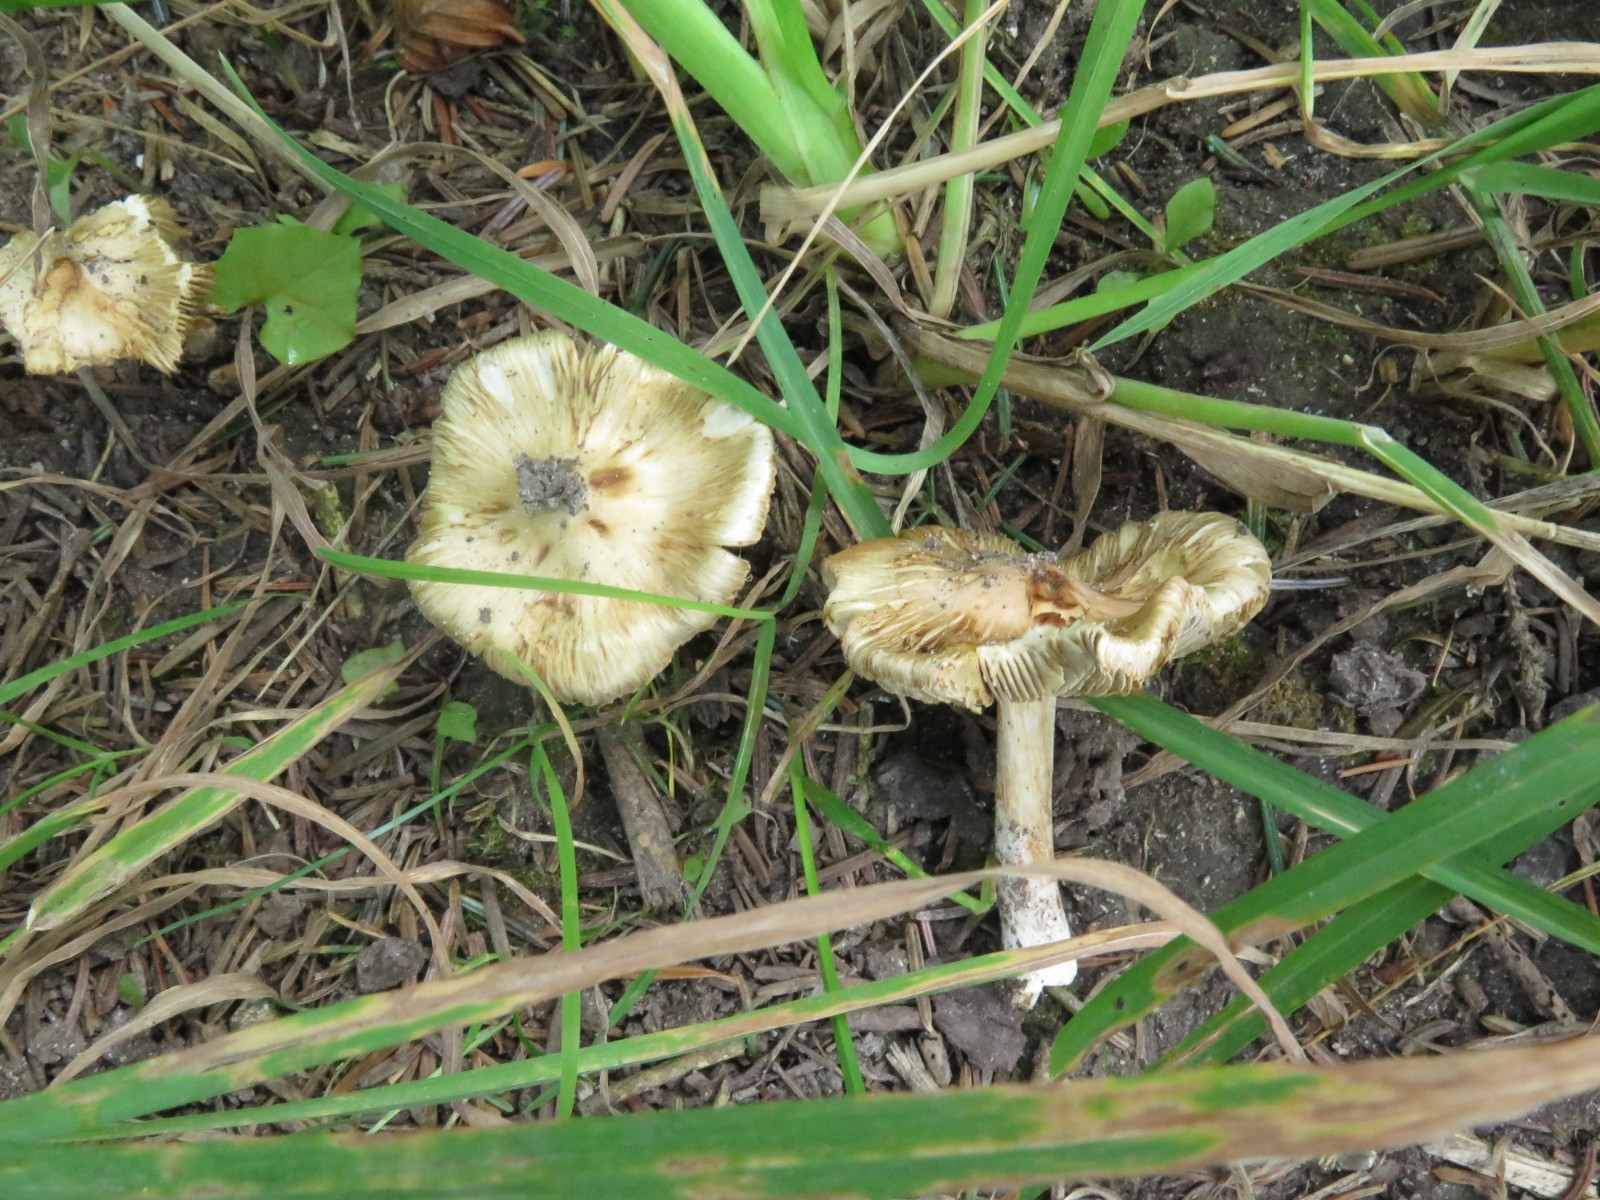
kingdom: Fungi
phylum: Basidiomycota
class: Agaricomycetes
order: Agaricales
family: Inocybaceae
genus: Pseudosperma
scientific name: Pseudosperma
